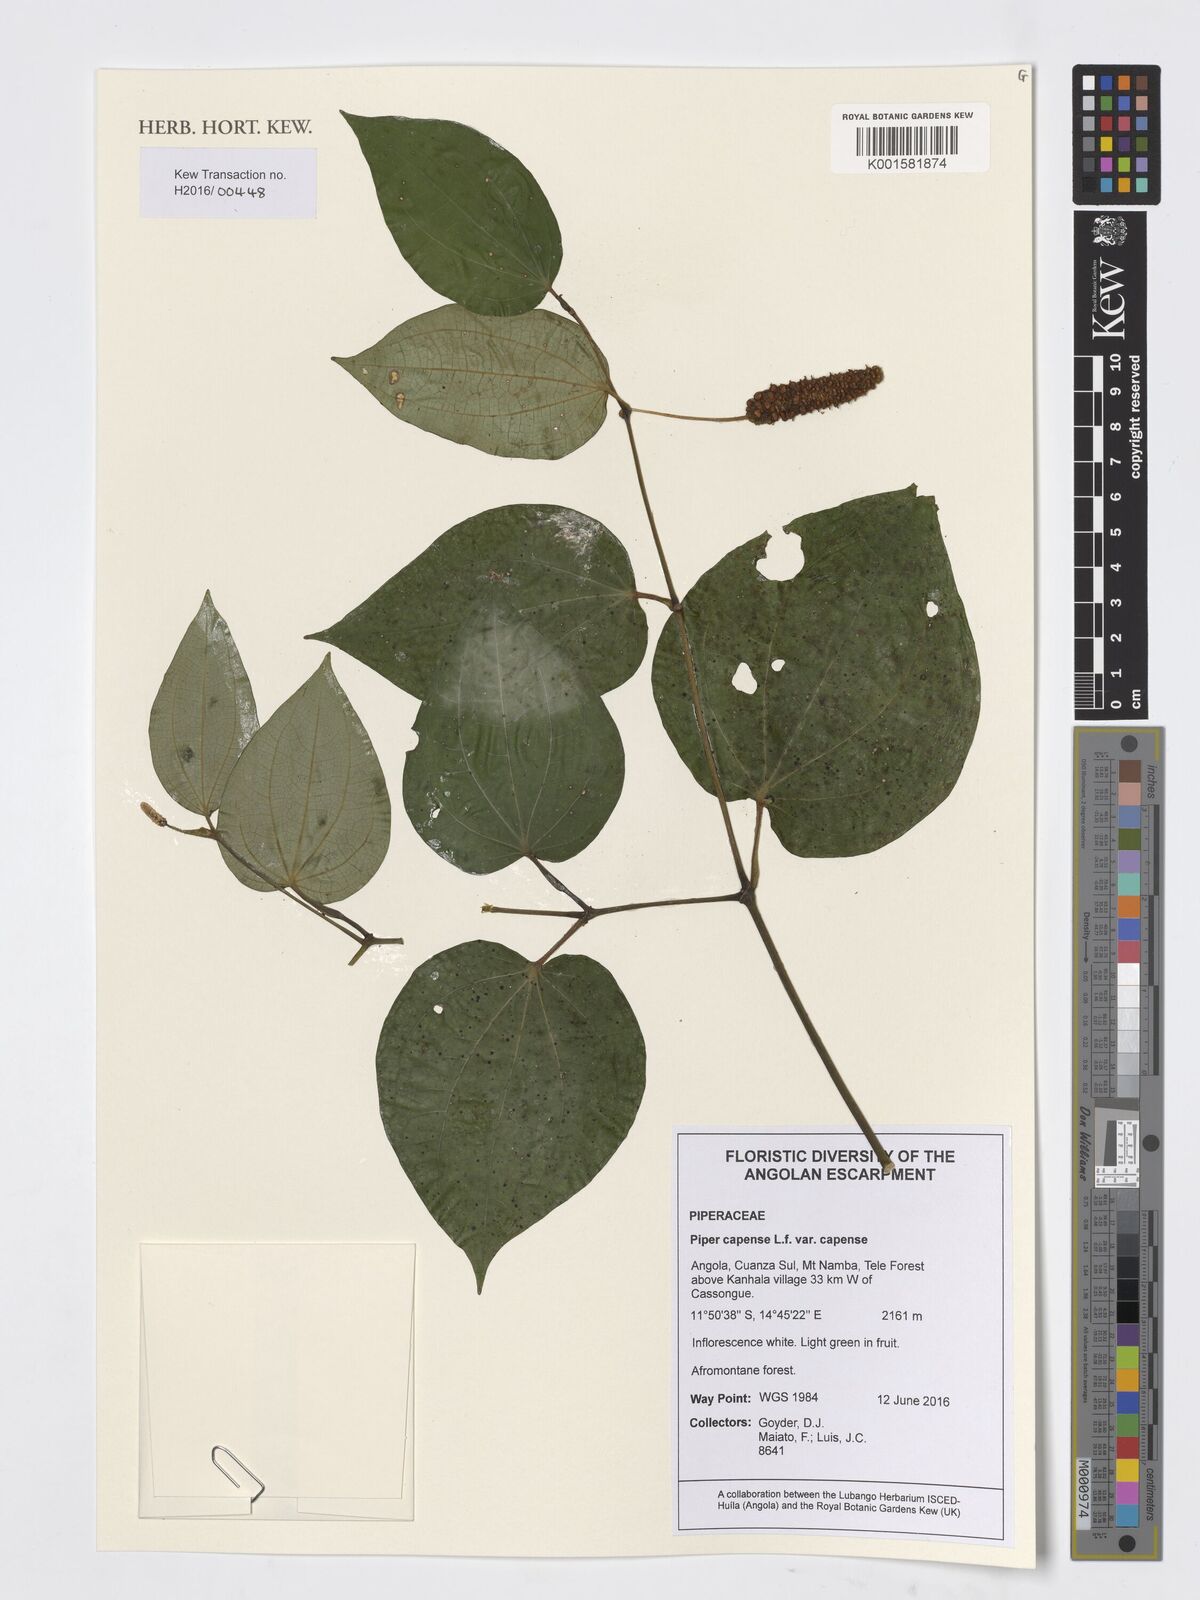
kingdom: Plantae
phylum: Tracheophyta
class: Magnoliopsida
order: Piperales
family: Piperaceae
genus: Piper
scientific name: Piper capense
